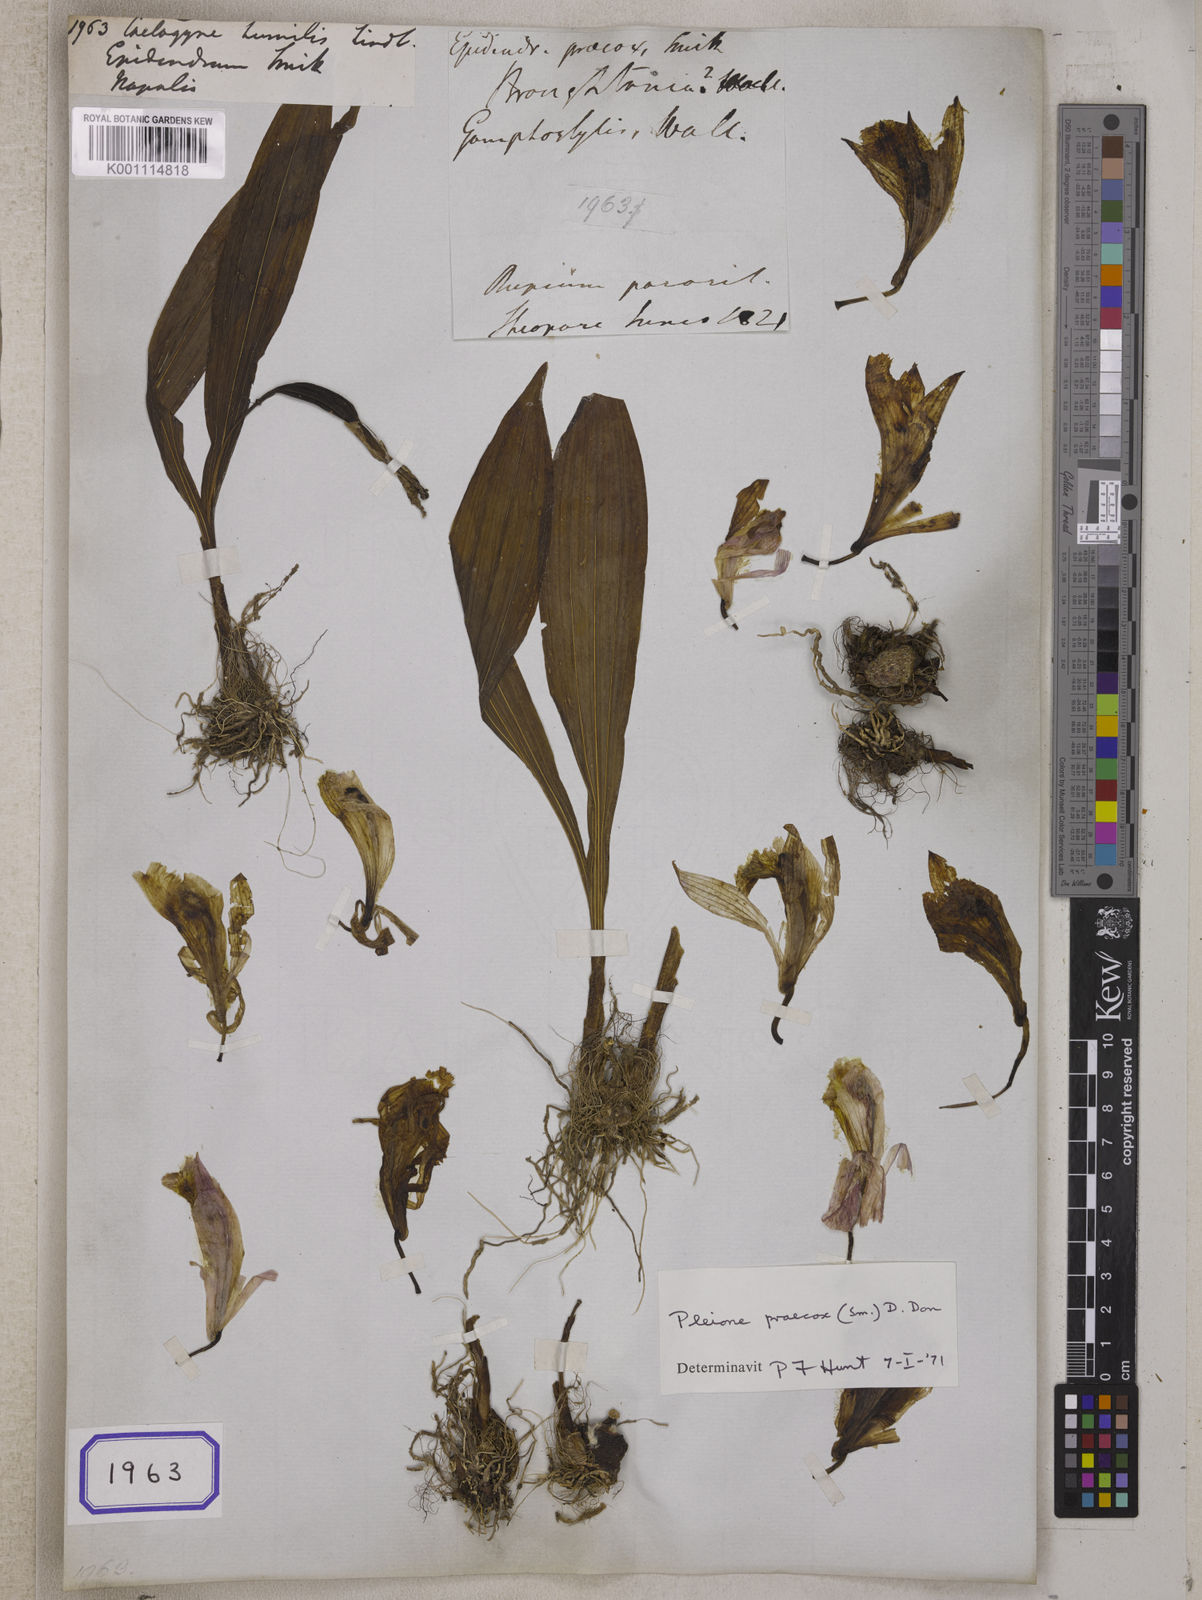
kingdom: Plantae
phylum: Tracheophyta
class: Liliopsida
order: Asparagales
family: Orchidaceae
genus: Pleione
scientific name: Pleione humilis
